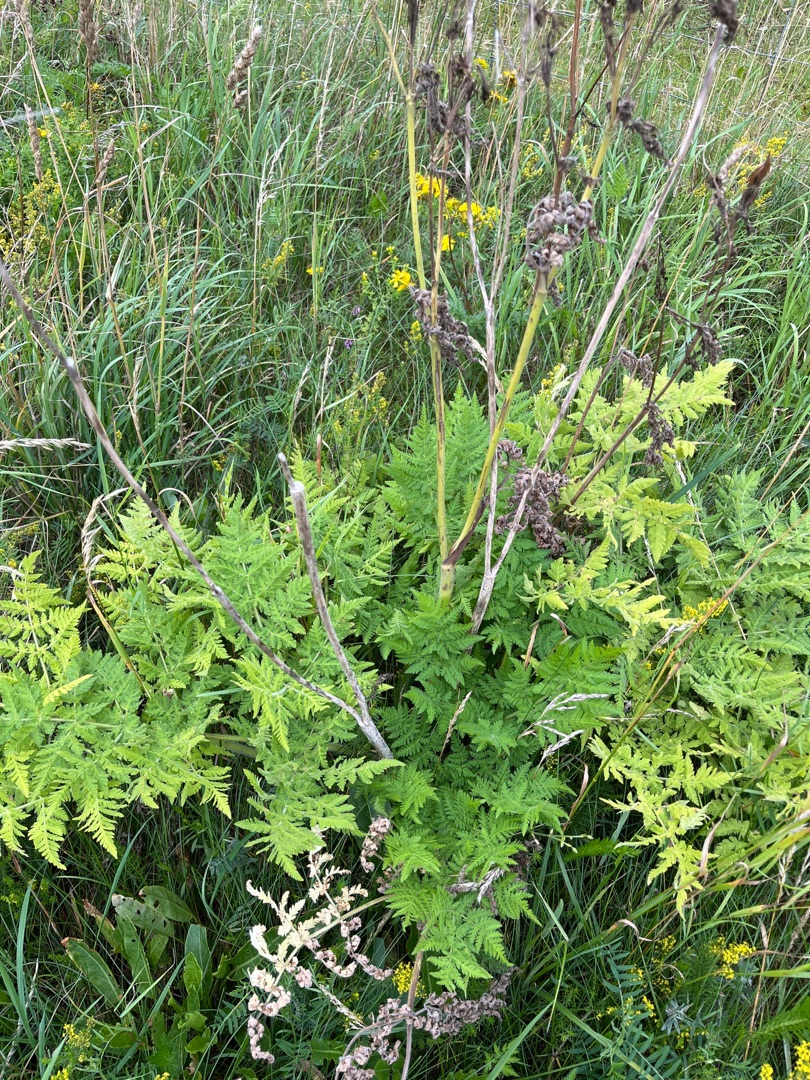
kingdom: Plantae
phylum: Tracheophyta
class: Magnoliopsida
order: Apiales
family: Apiaceae
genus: Myrrhis
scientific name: Myrrhis odorata
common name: Sødskærm
